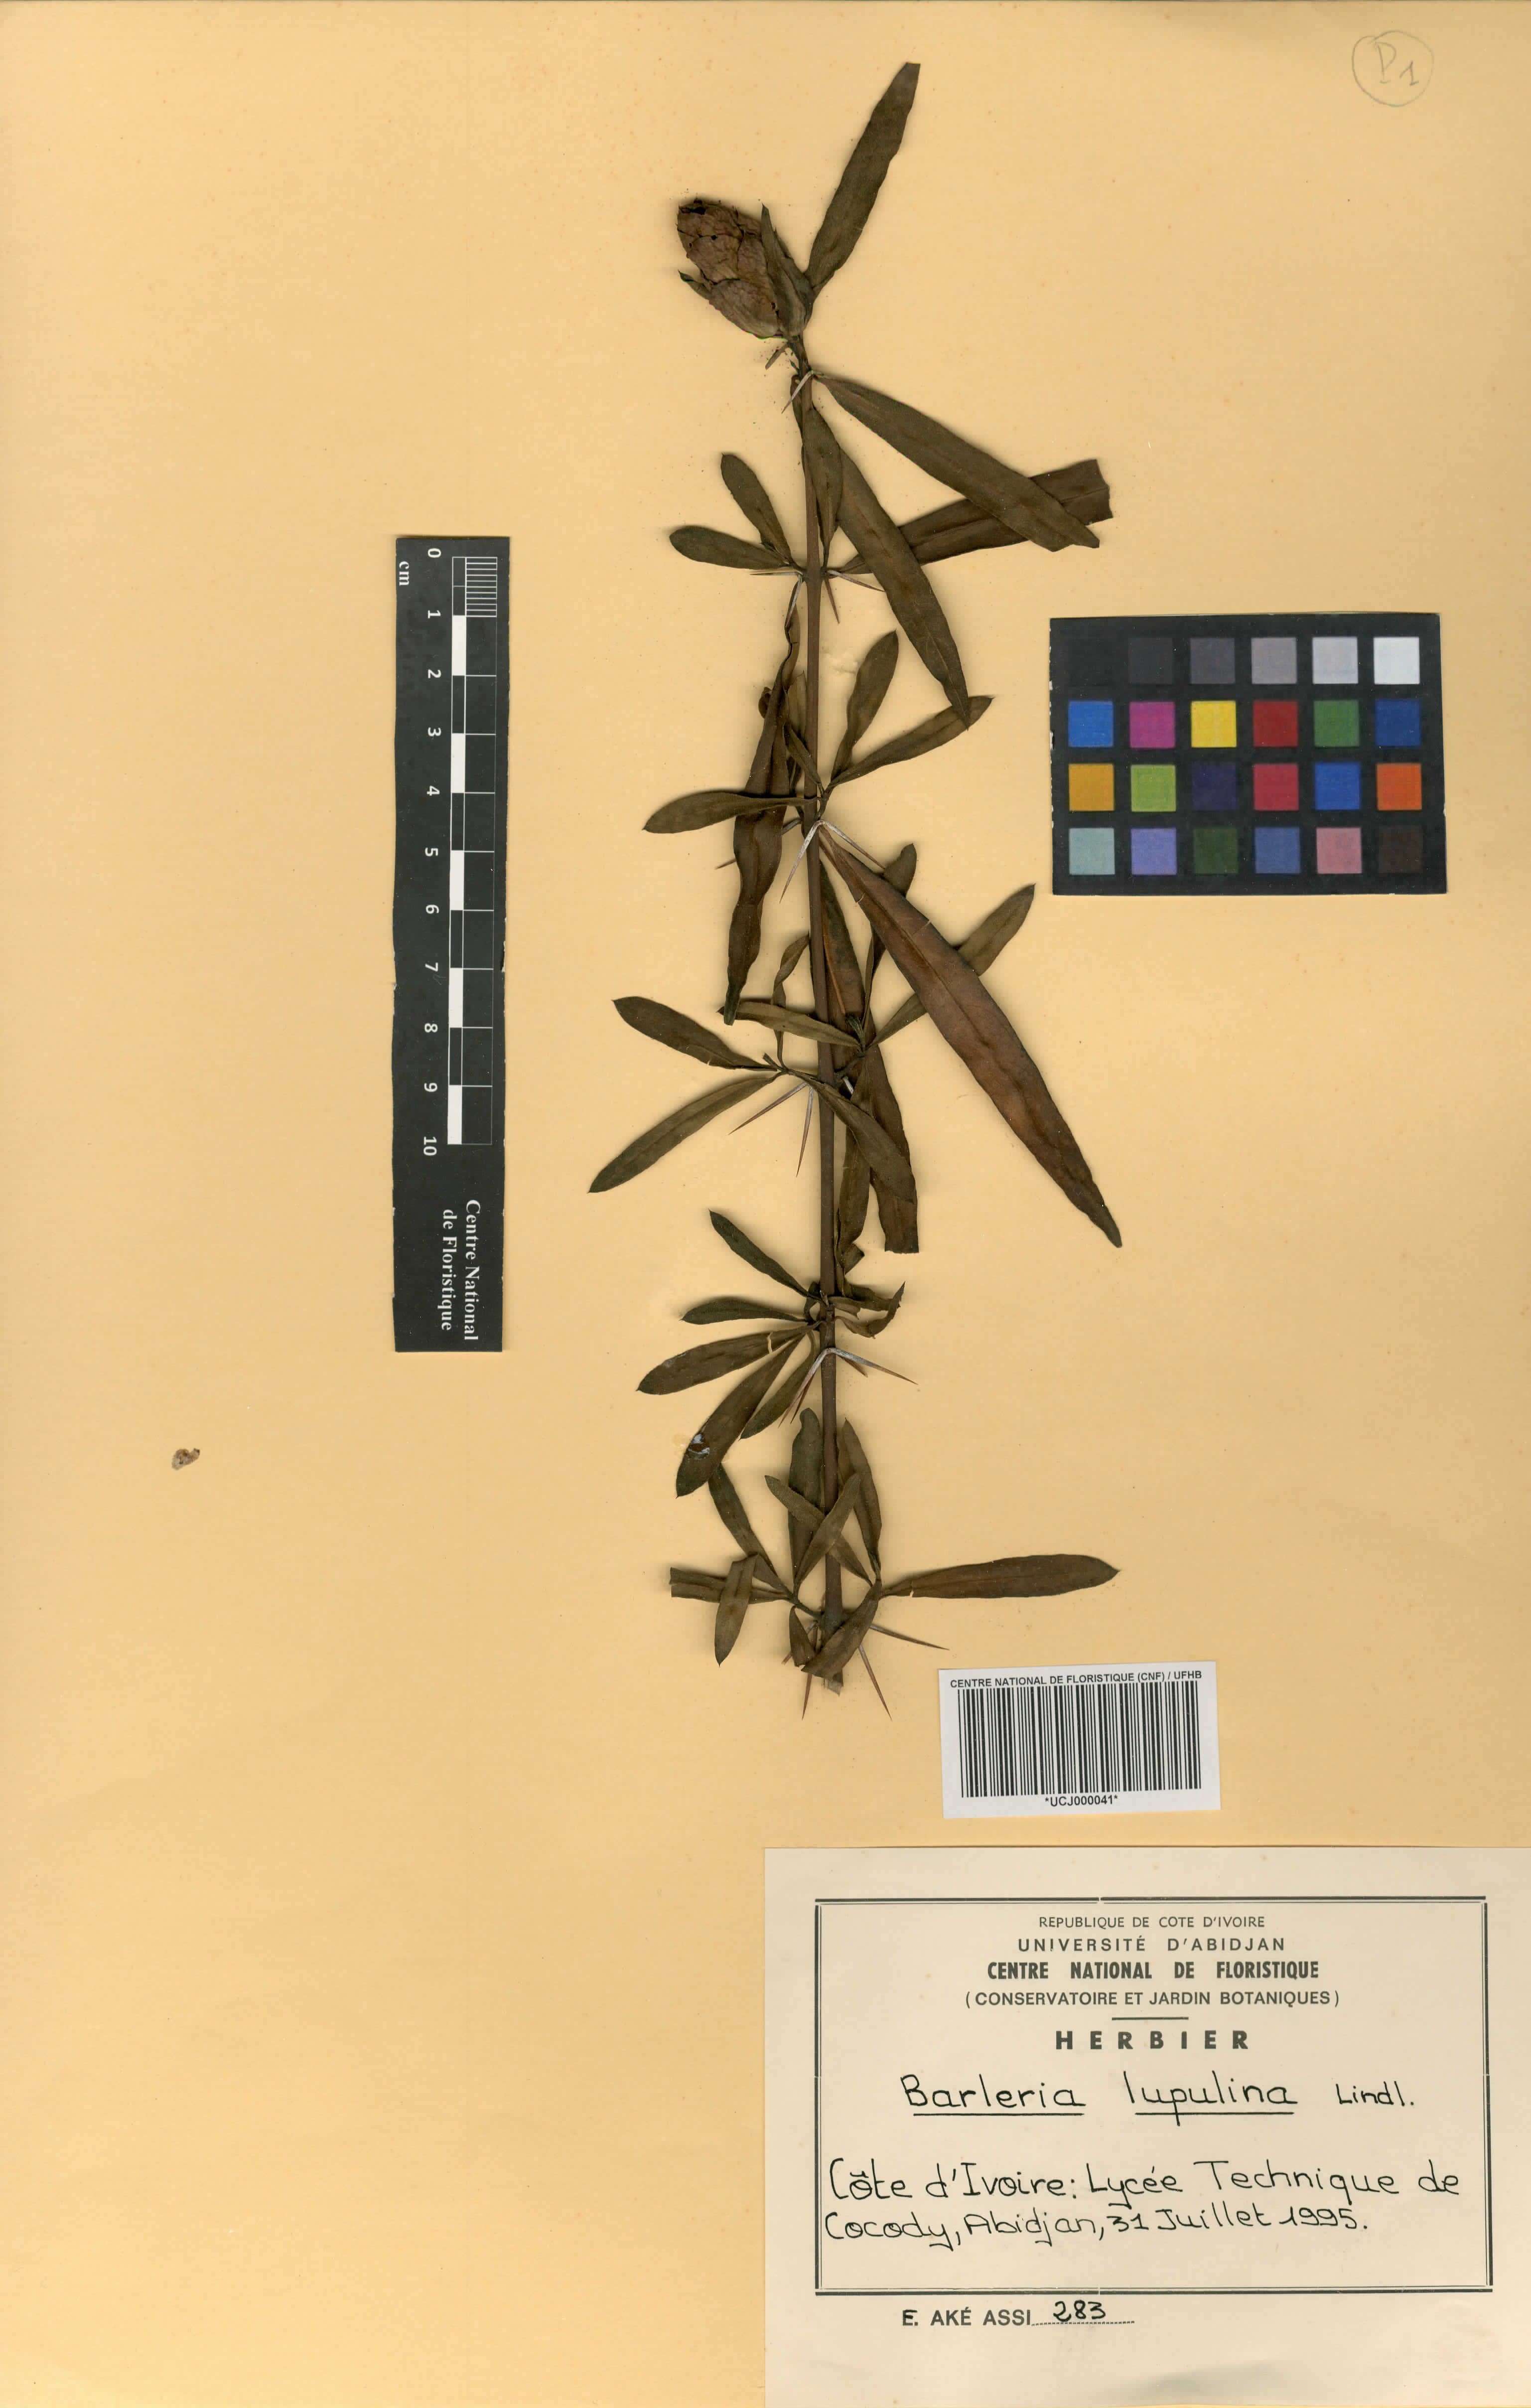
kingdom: Plantae
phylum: Tracheophyta
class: Magnoliopsida
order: Lamiales
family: Acanthaceae
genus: Barleria
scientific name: Barleria lupulina
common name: Hophead philippine violet
